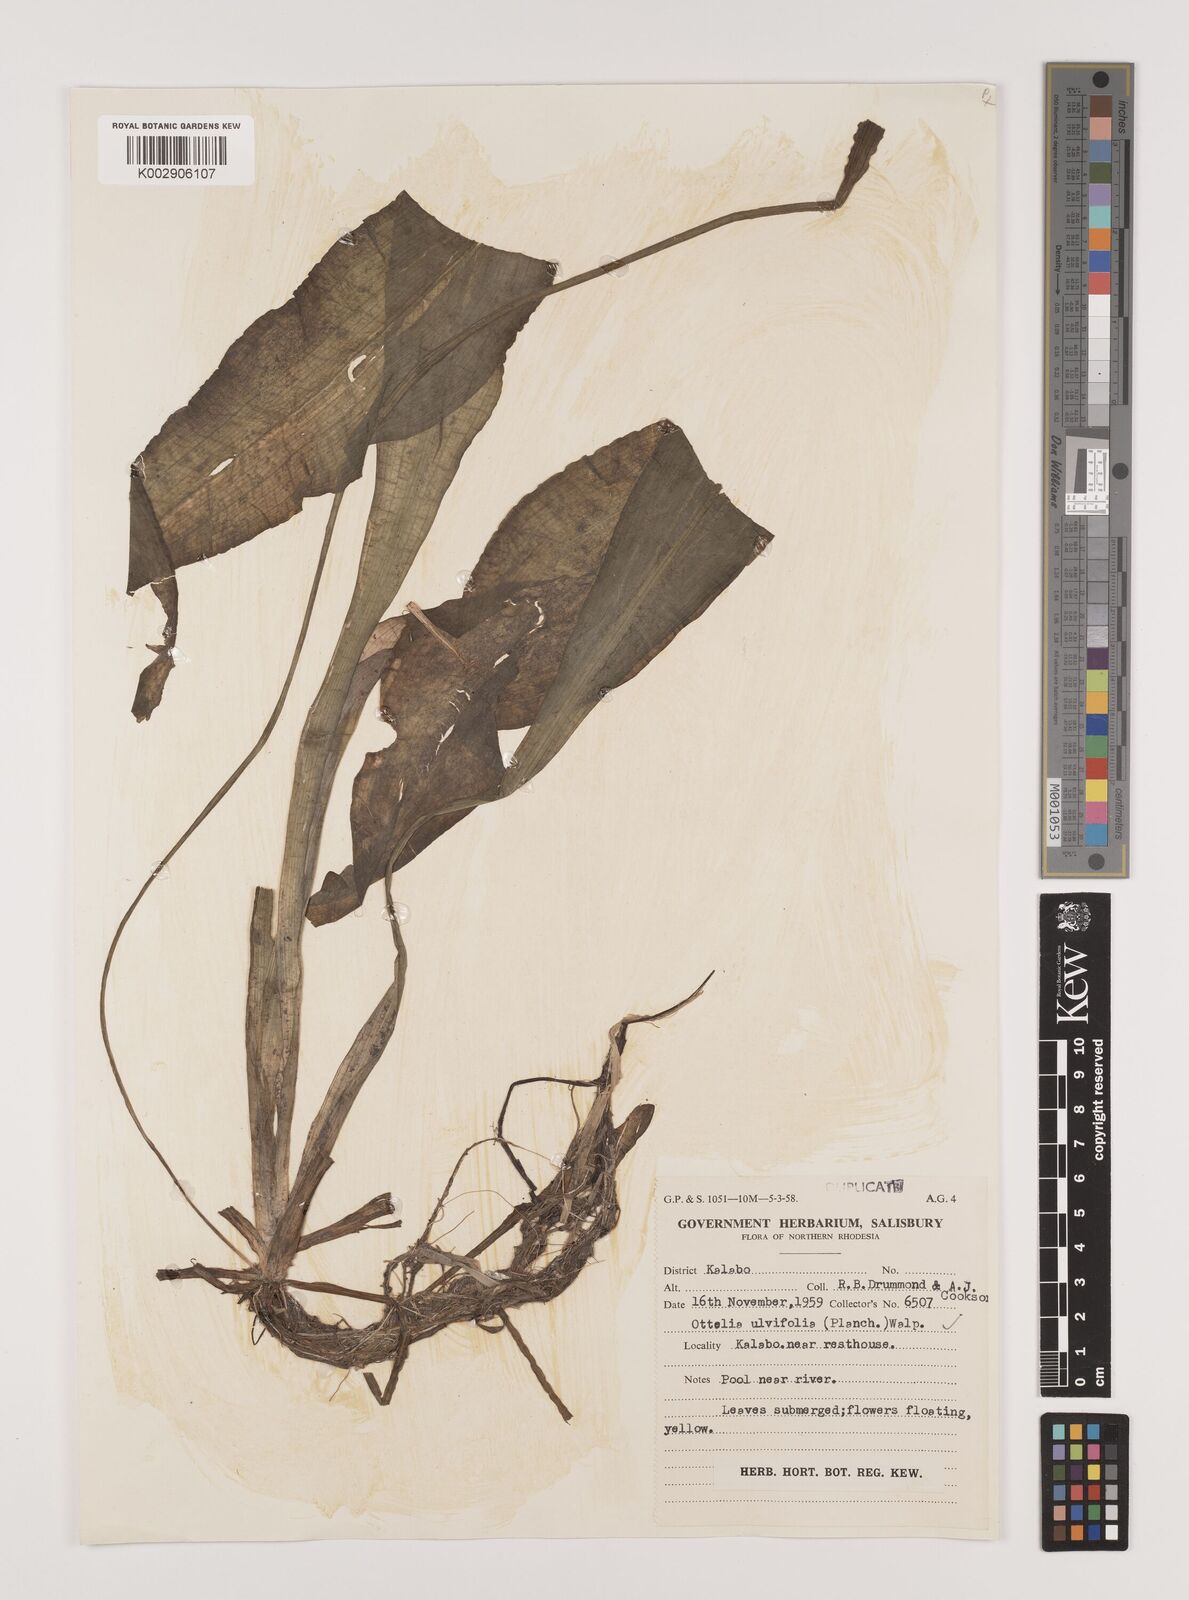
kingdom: Plantae
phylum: Tracheophyta
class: Liliopsida
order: Alismatales
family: Hydrocharitaceae
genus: Ottelia
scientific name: Ottelia ulvifolia
